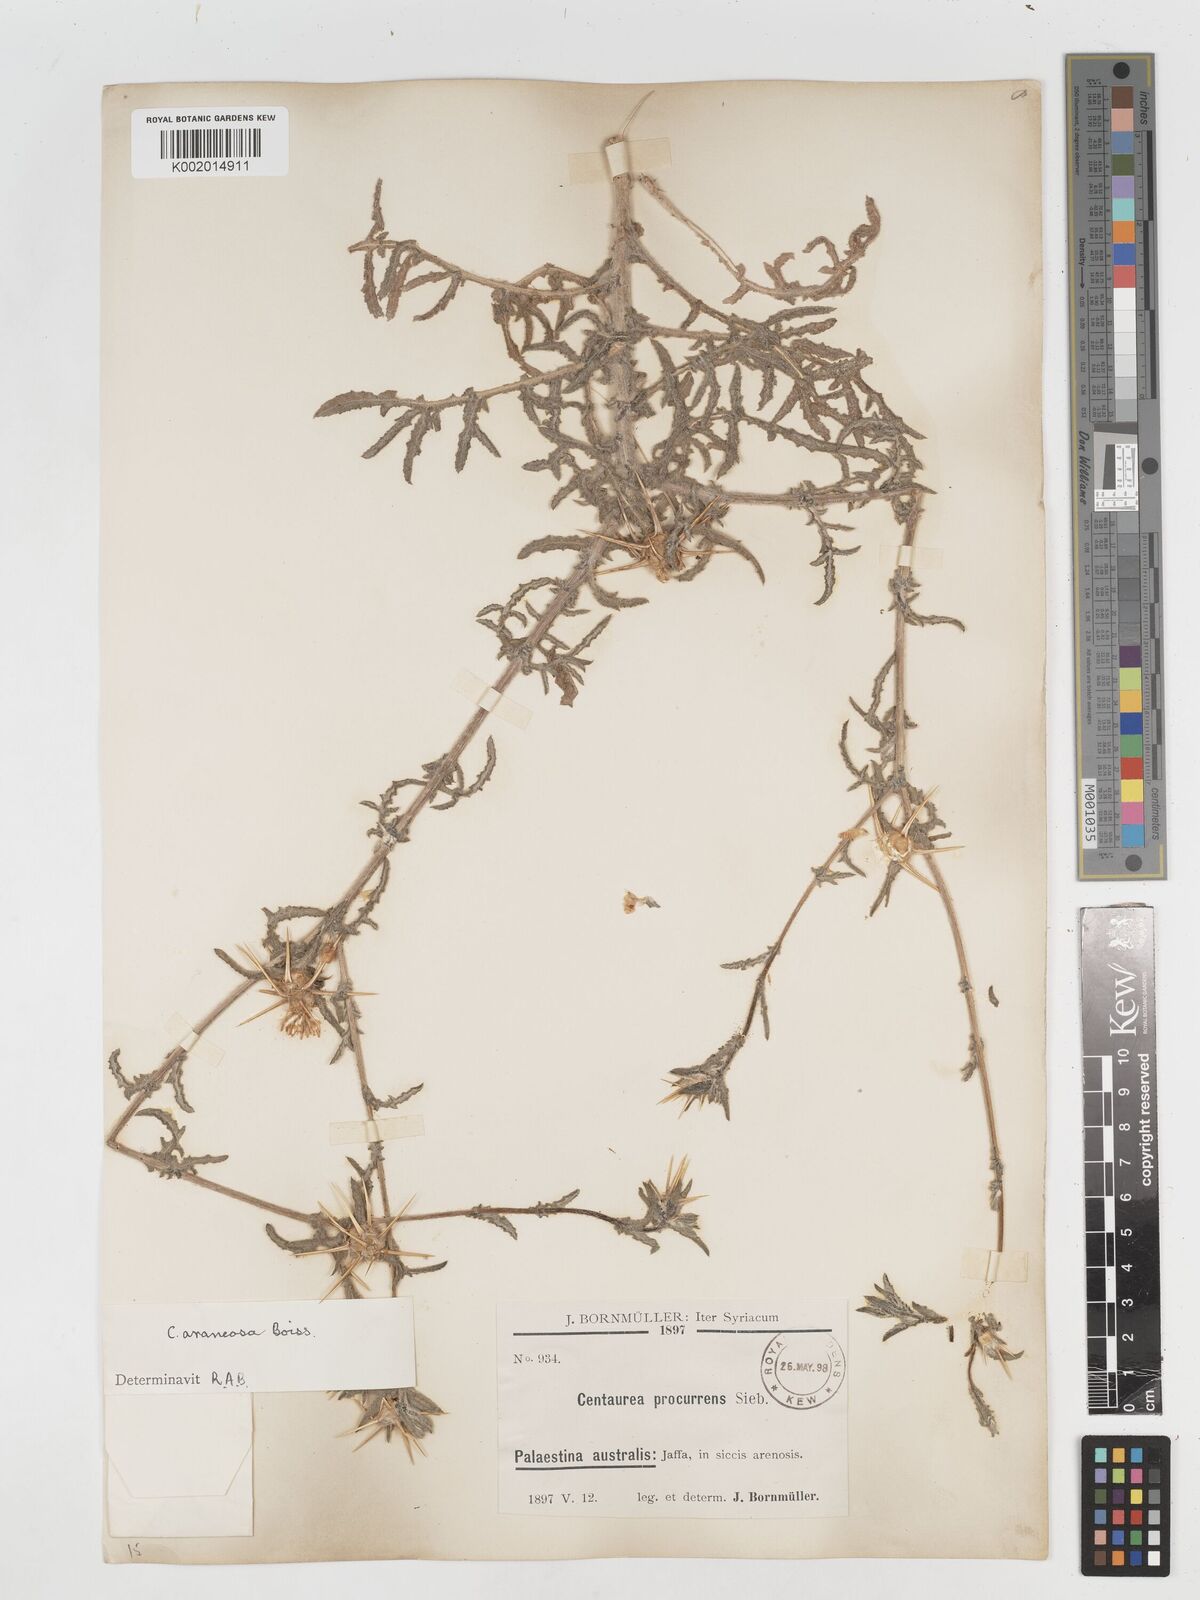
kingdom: Plantae
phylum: Tracheophyta
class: Magnoliopsida
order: Asterales
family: Asteraceae
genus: Centaurea
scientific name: Centaurea procurrens
